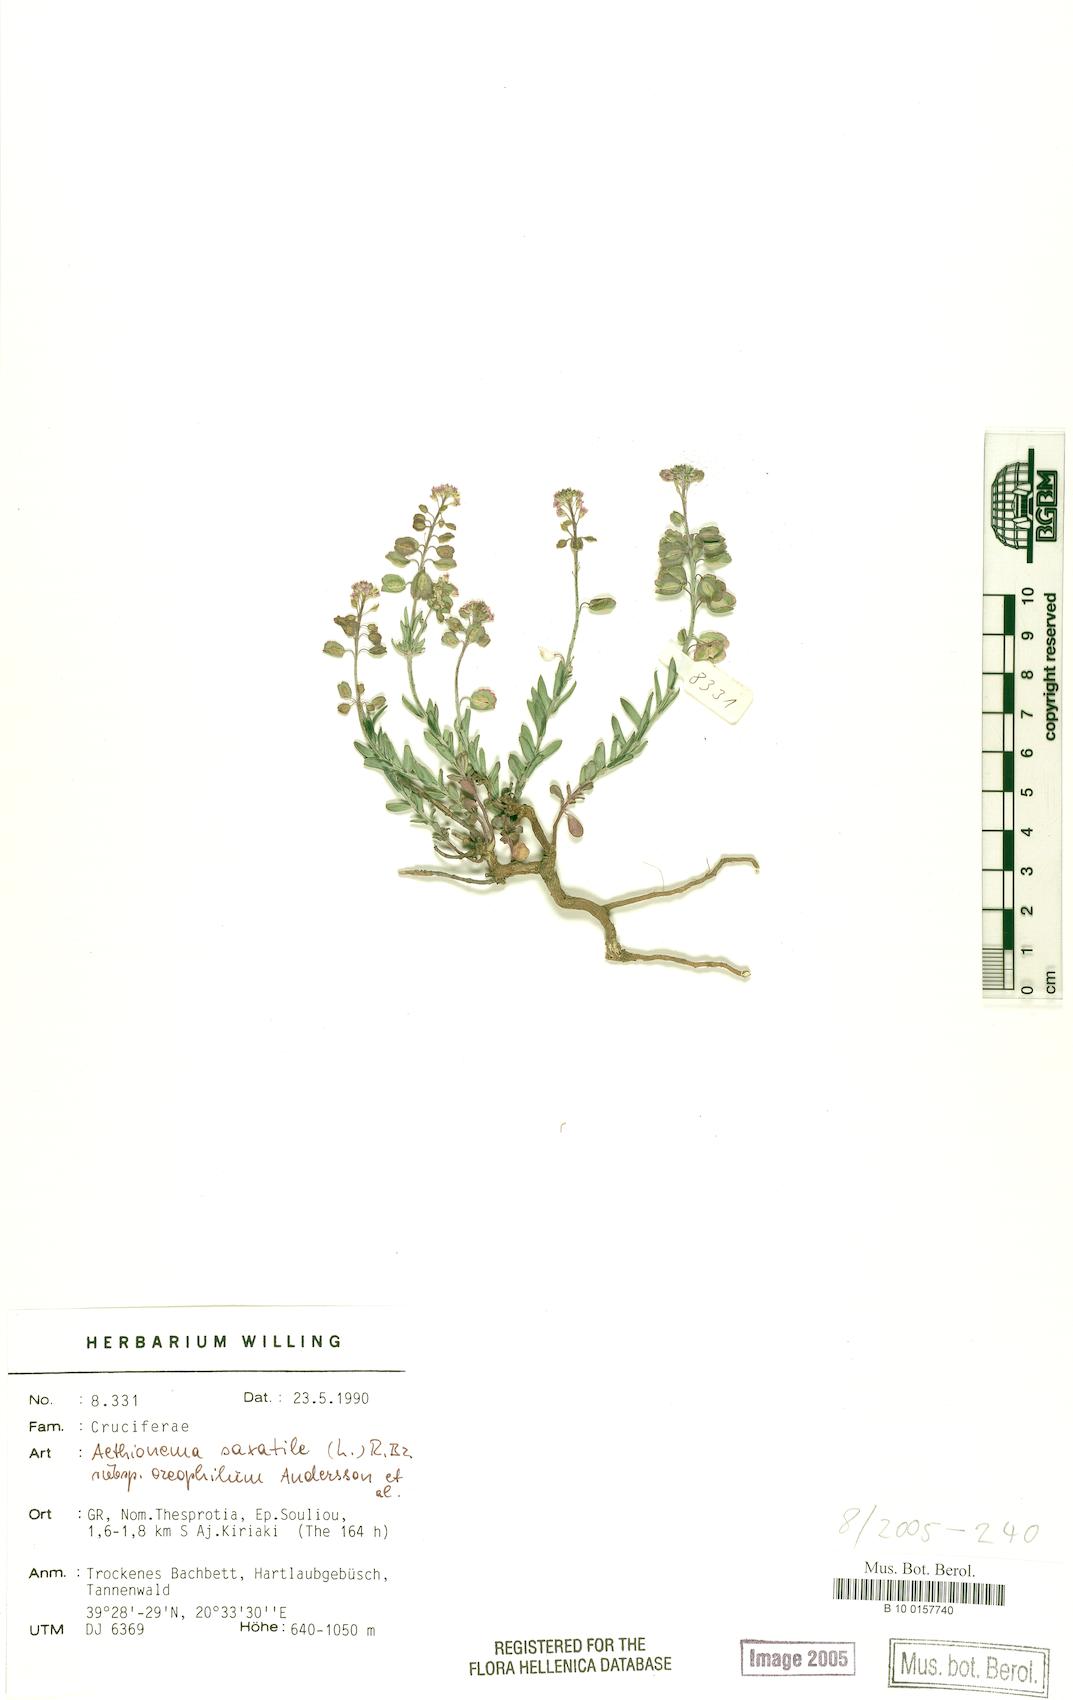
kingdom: Plantae
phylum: Tracheophyta
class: Magnoliopsida
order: Brassicales
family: Brassicaceae
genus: Aethionema
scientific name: Aethionema saxatile
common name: Burnt candytuft
